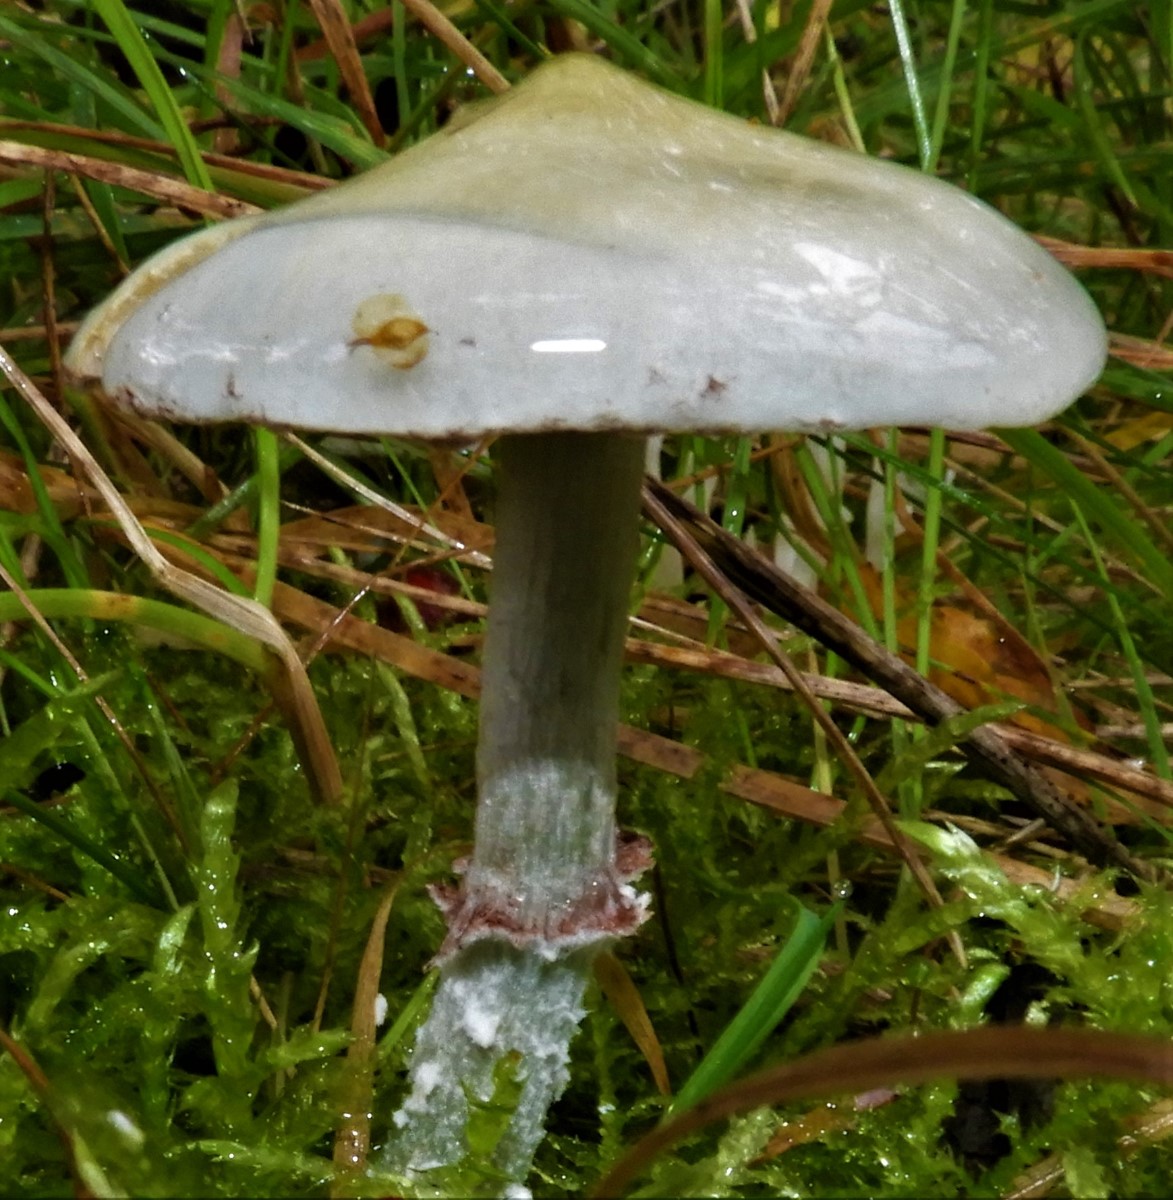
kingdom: Fungi
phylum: Basidiomycota
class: Agaricomycetes
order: Agaricales
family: Strophariaceae
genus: Stropharia
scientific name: Stropharia cyanea
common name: blågrøn bredblad
